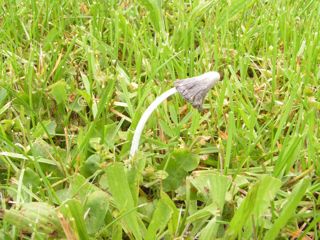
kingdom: Fungi
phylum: Basidiomycota
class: Agaricomycetes
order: Agaricales
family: Psathyrellaceae
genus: Coprinopsis
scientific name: Coprinopsis lagopus
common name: dunstokket blækhat
